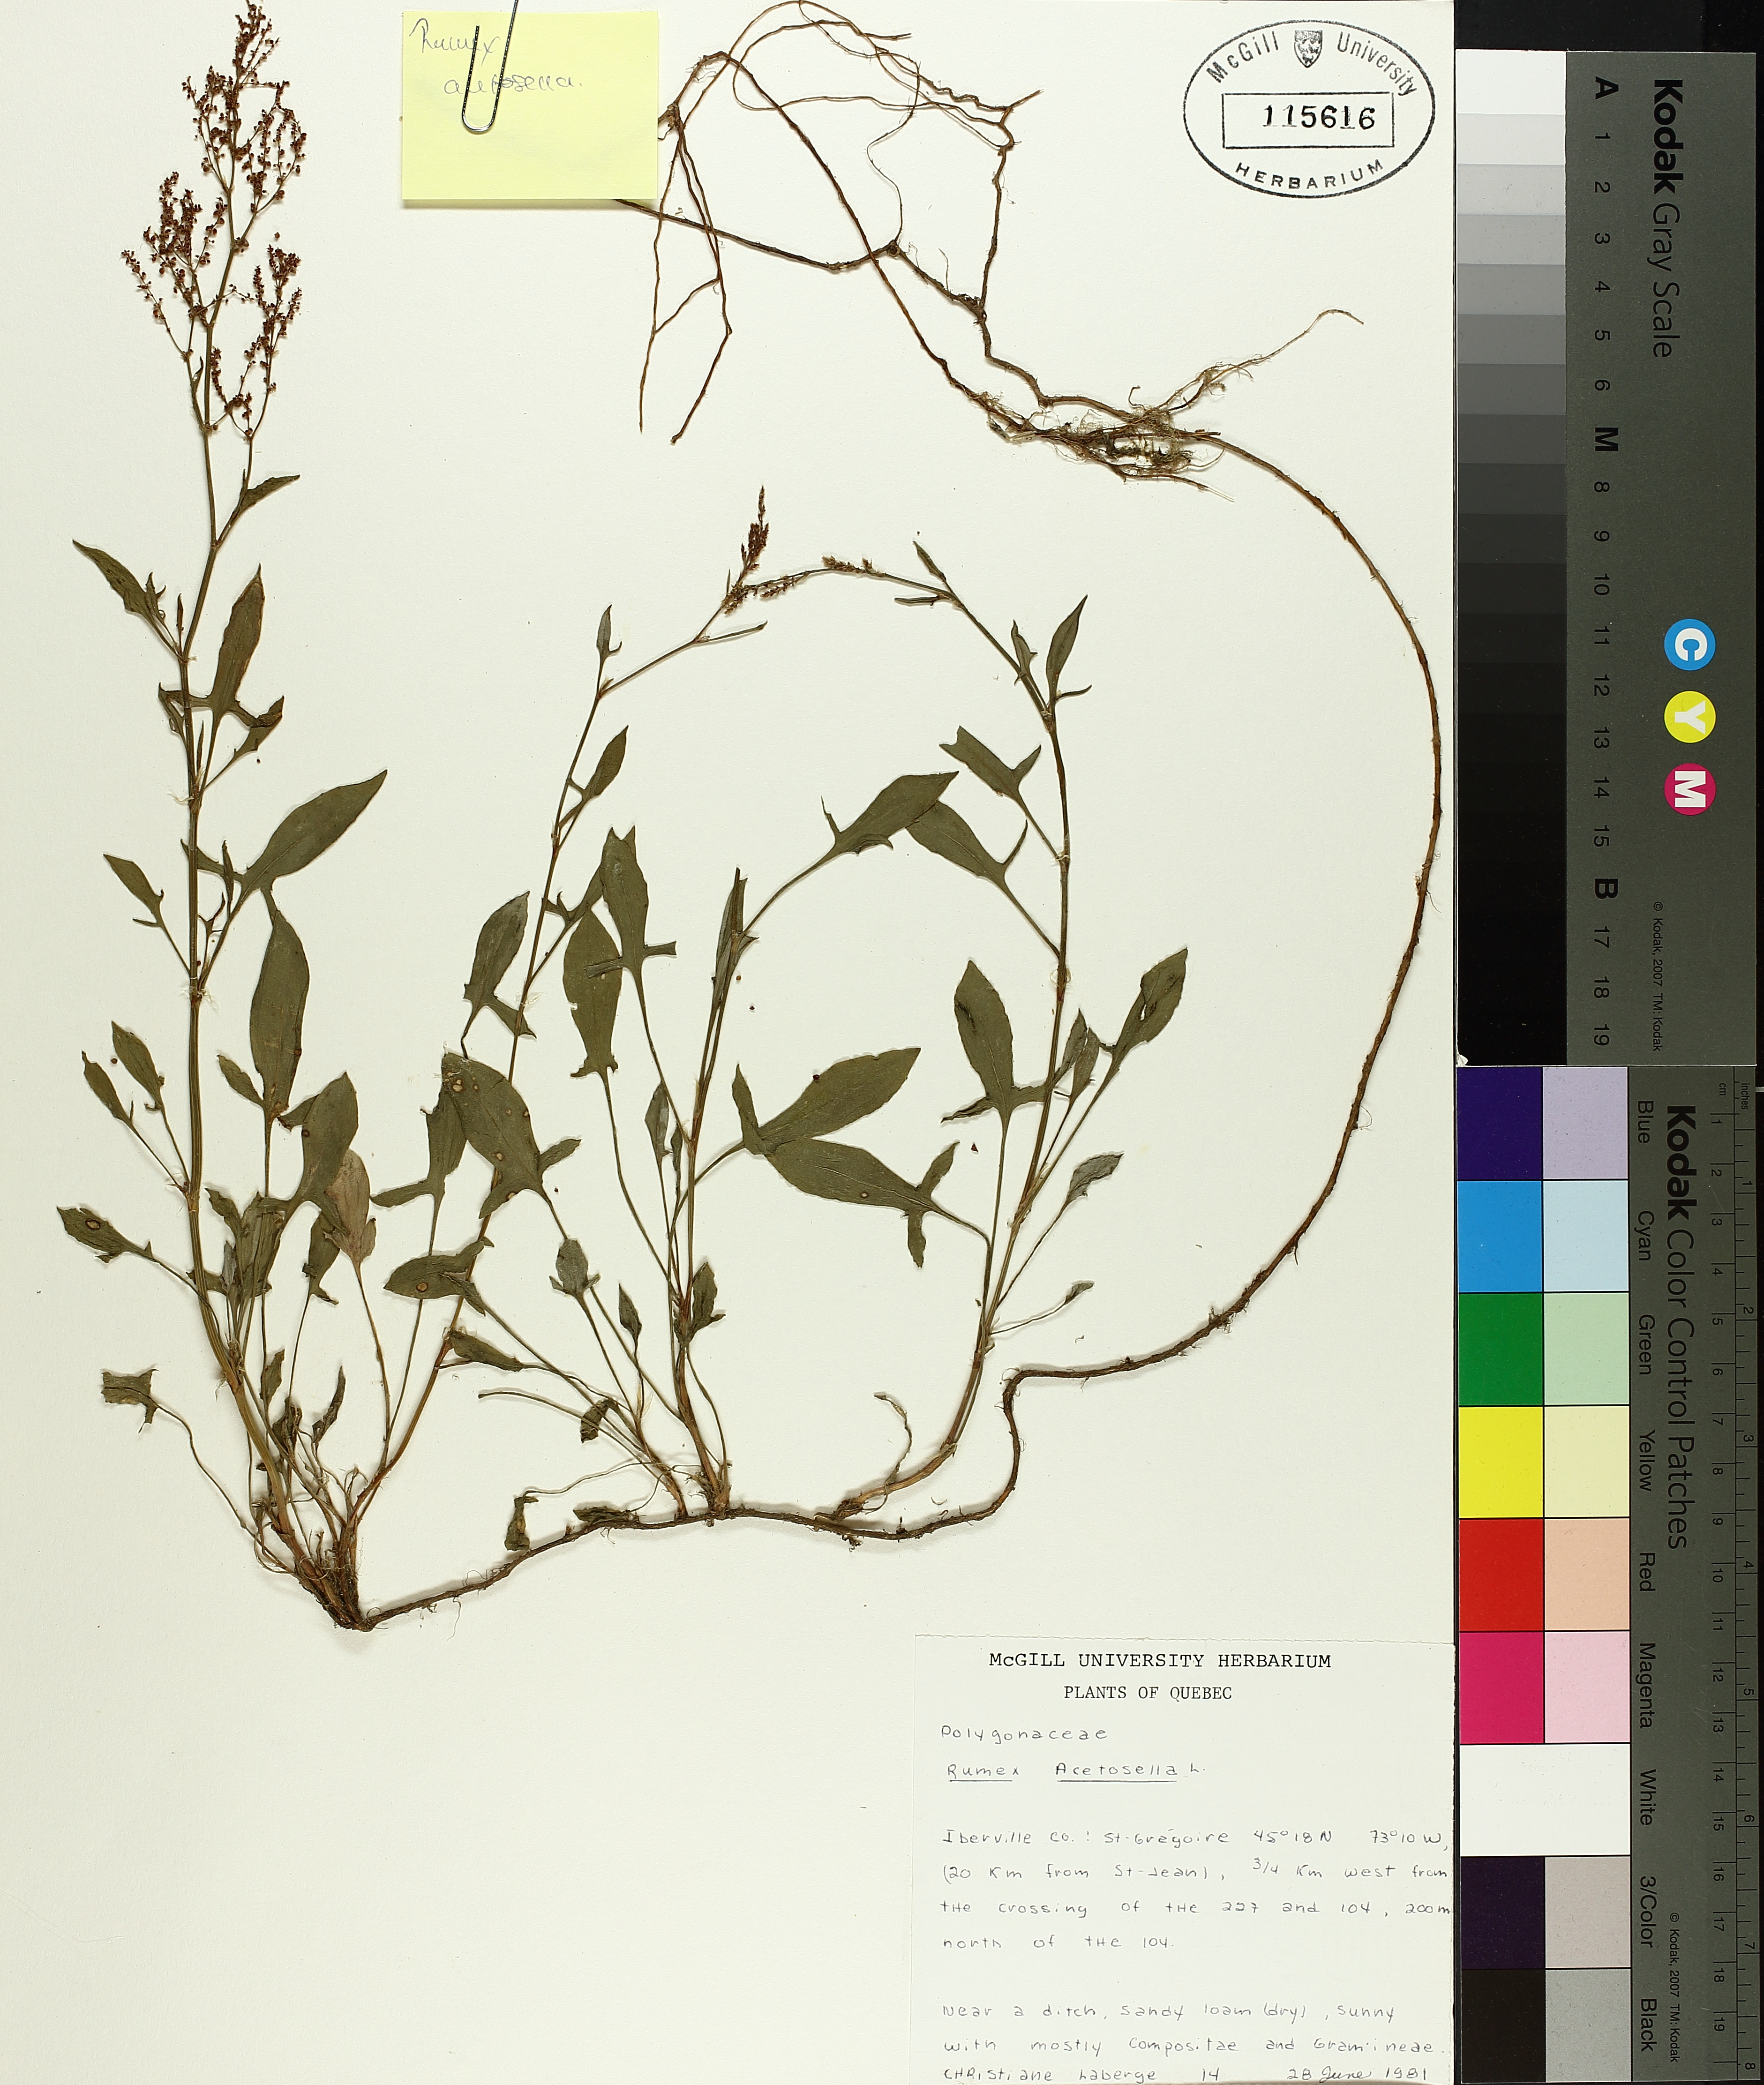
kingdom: Plantae
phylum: Tracheophyta
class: Magnoliopsida
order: Caryophyllales
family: Polygonaceae
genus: Rumex
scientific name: Rumex acetosella
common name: Common sheep sorrel
